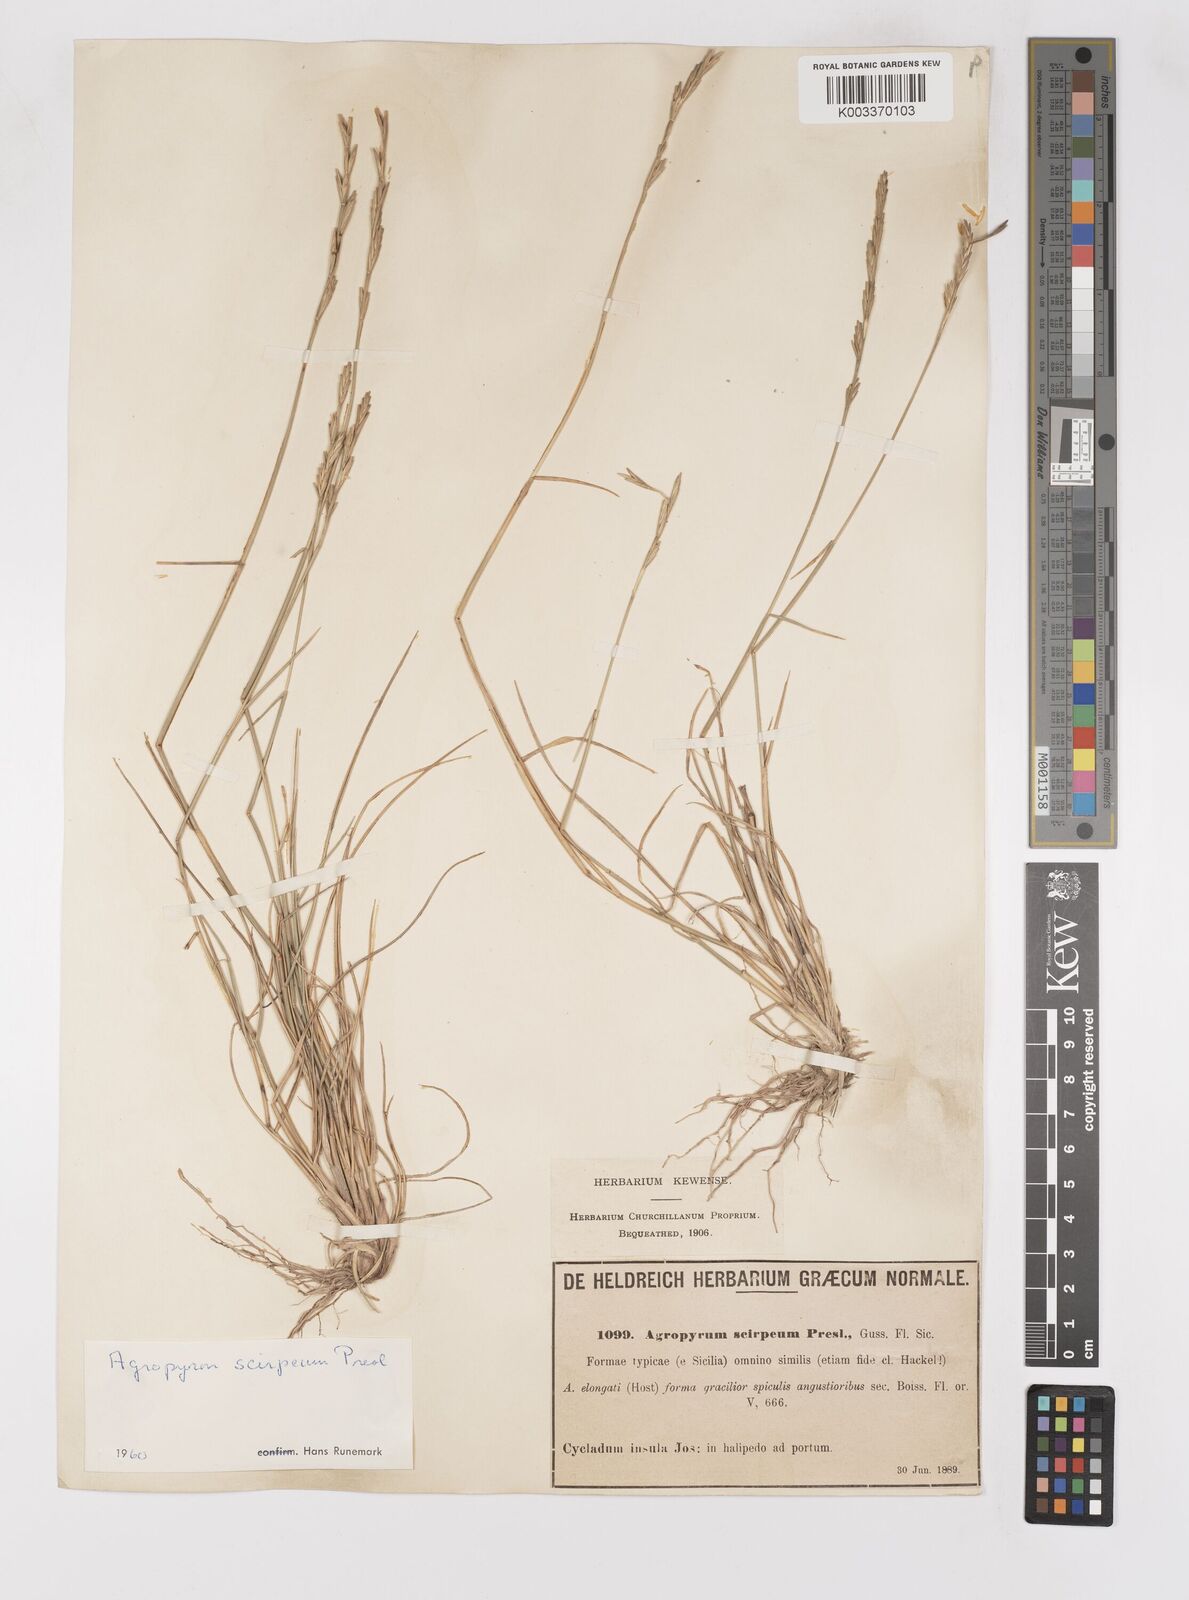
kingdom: Plantae
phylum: Tracheophyta
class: Liliopsida
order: Poales
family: Poaceae
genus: Thinopyrum
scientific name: Thinopyrum elongatum
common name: Tall wheatgrass
